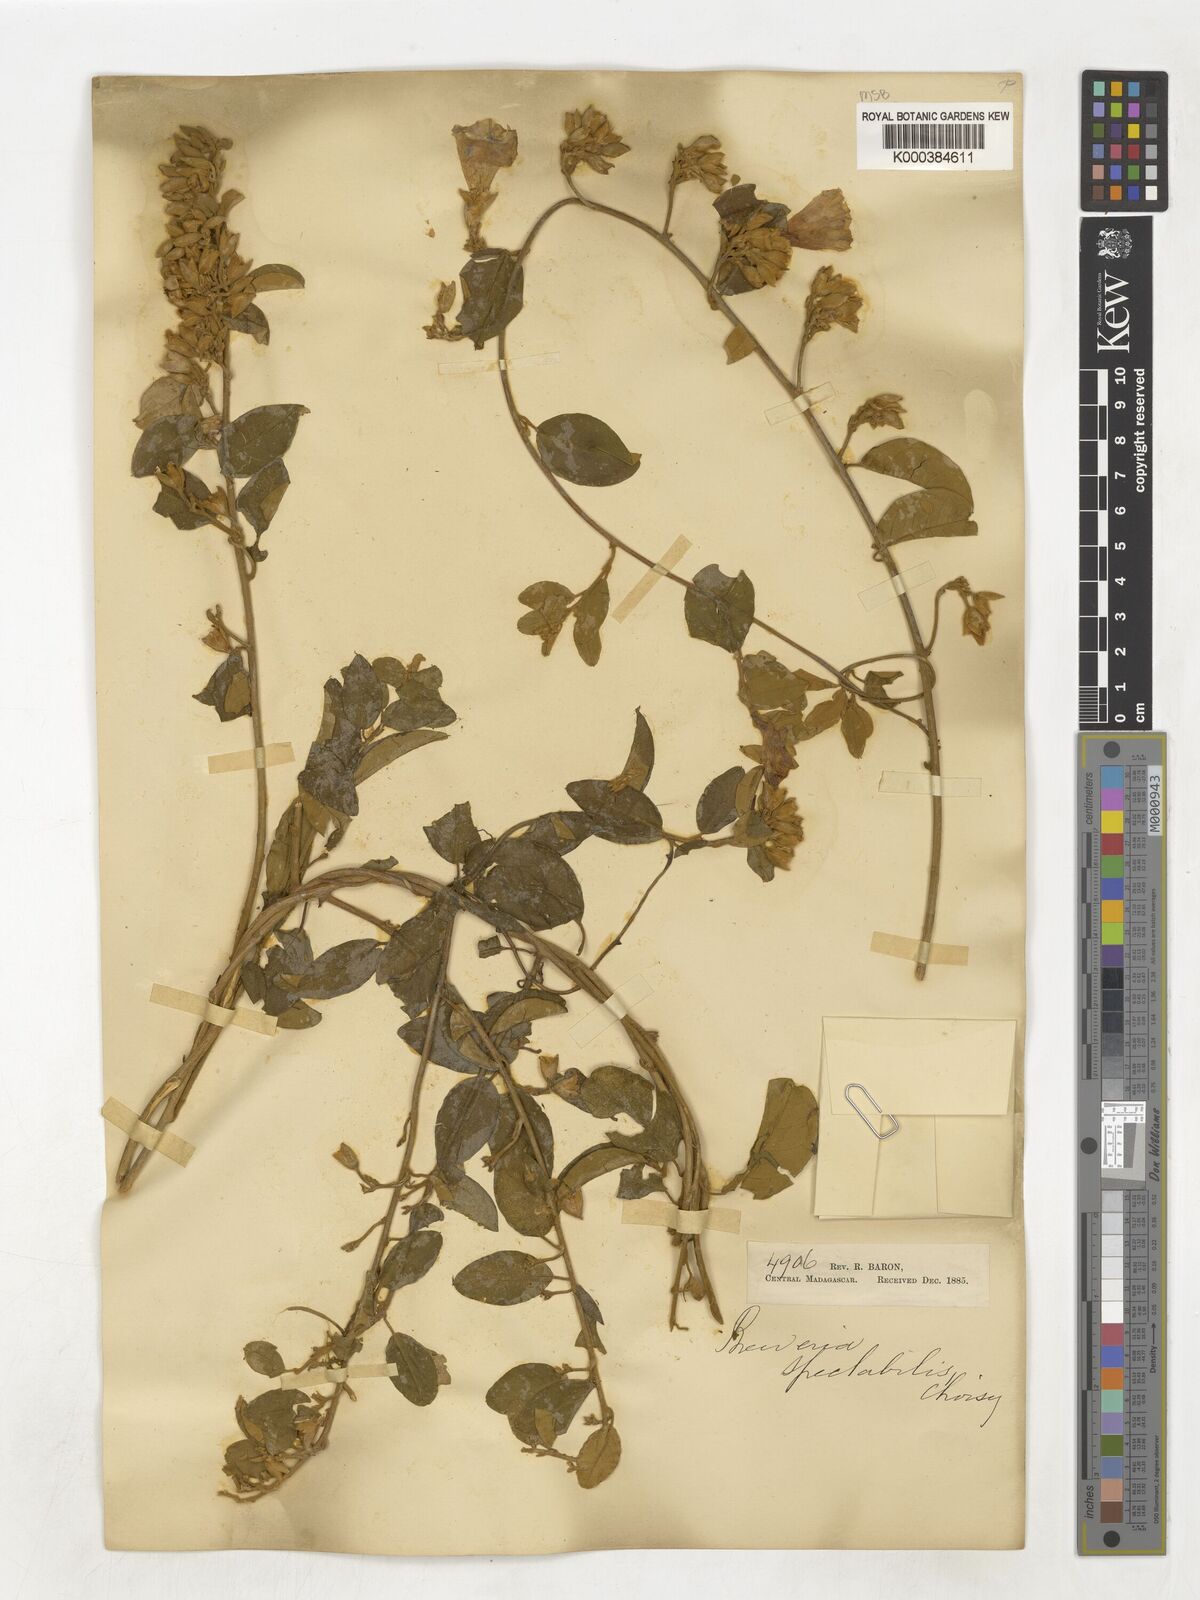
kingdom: Plantae
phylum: Tracheophyta
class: Magnoliopsida
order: Solanales
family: Convolvulaceae
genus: Bonamia
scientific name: Bonamia spectabilis
